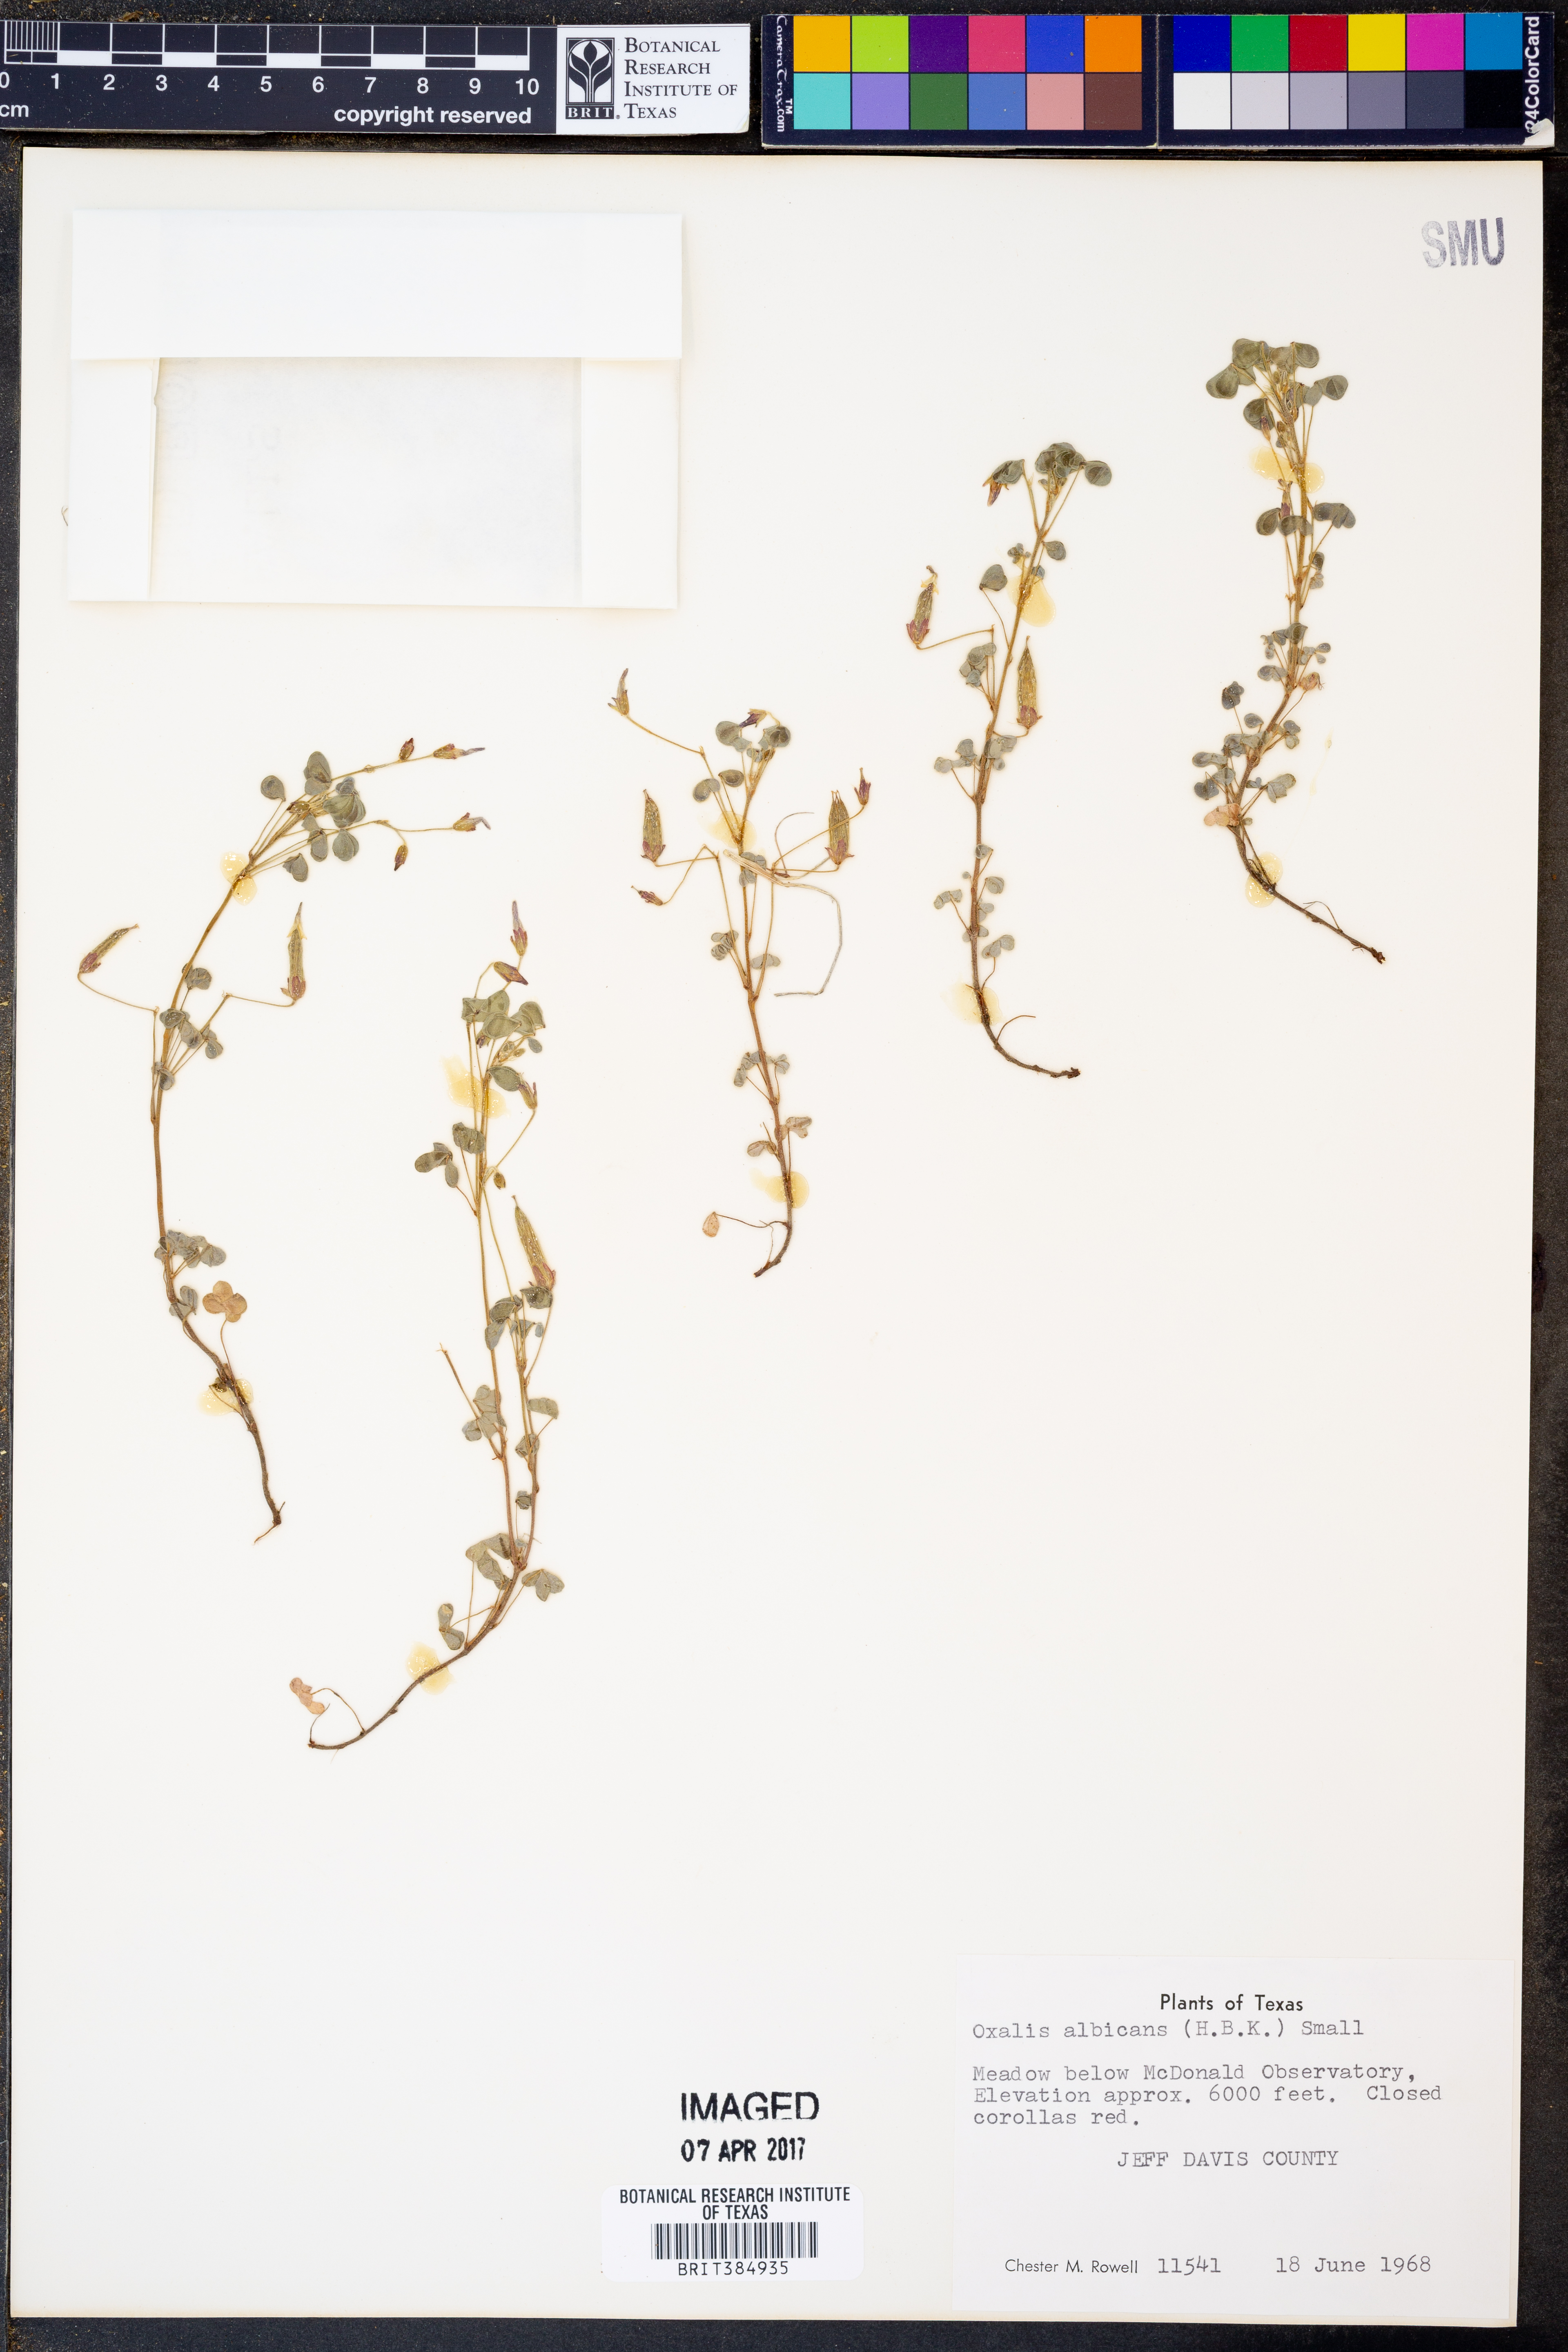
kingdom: Plantae
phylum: Tracheophyta
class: Magnoliopsida
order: Oxalidales
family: Oxalidaceae
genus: Oxalis
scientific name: Oxalis albicans
